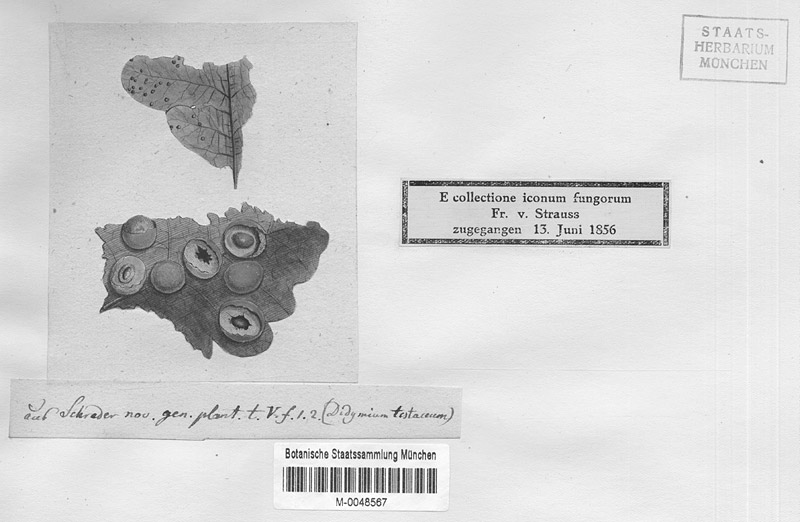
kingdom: Protozoa
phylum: Mycetozoa
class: Myxomycetes
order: Physarales
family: Didymiaceae
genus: Diderma
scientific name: Diderma testaceum
